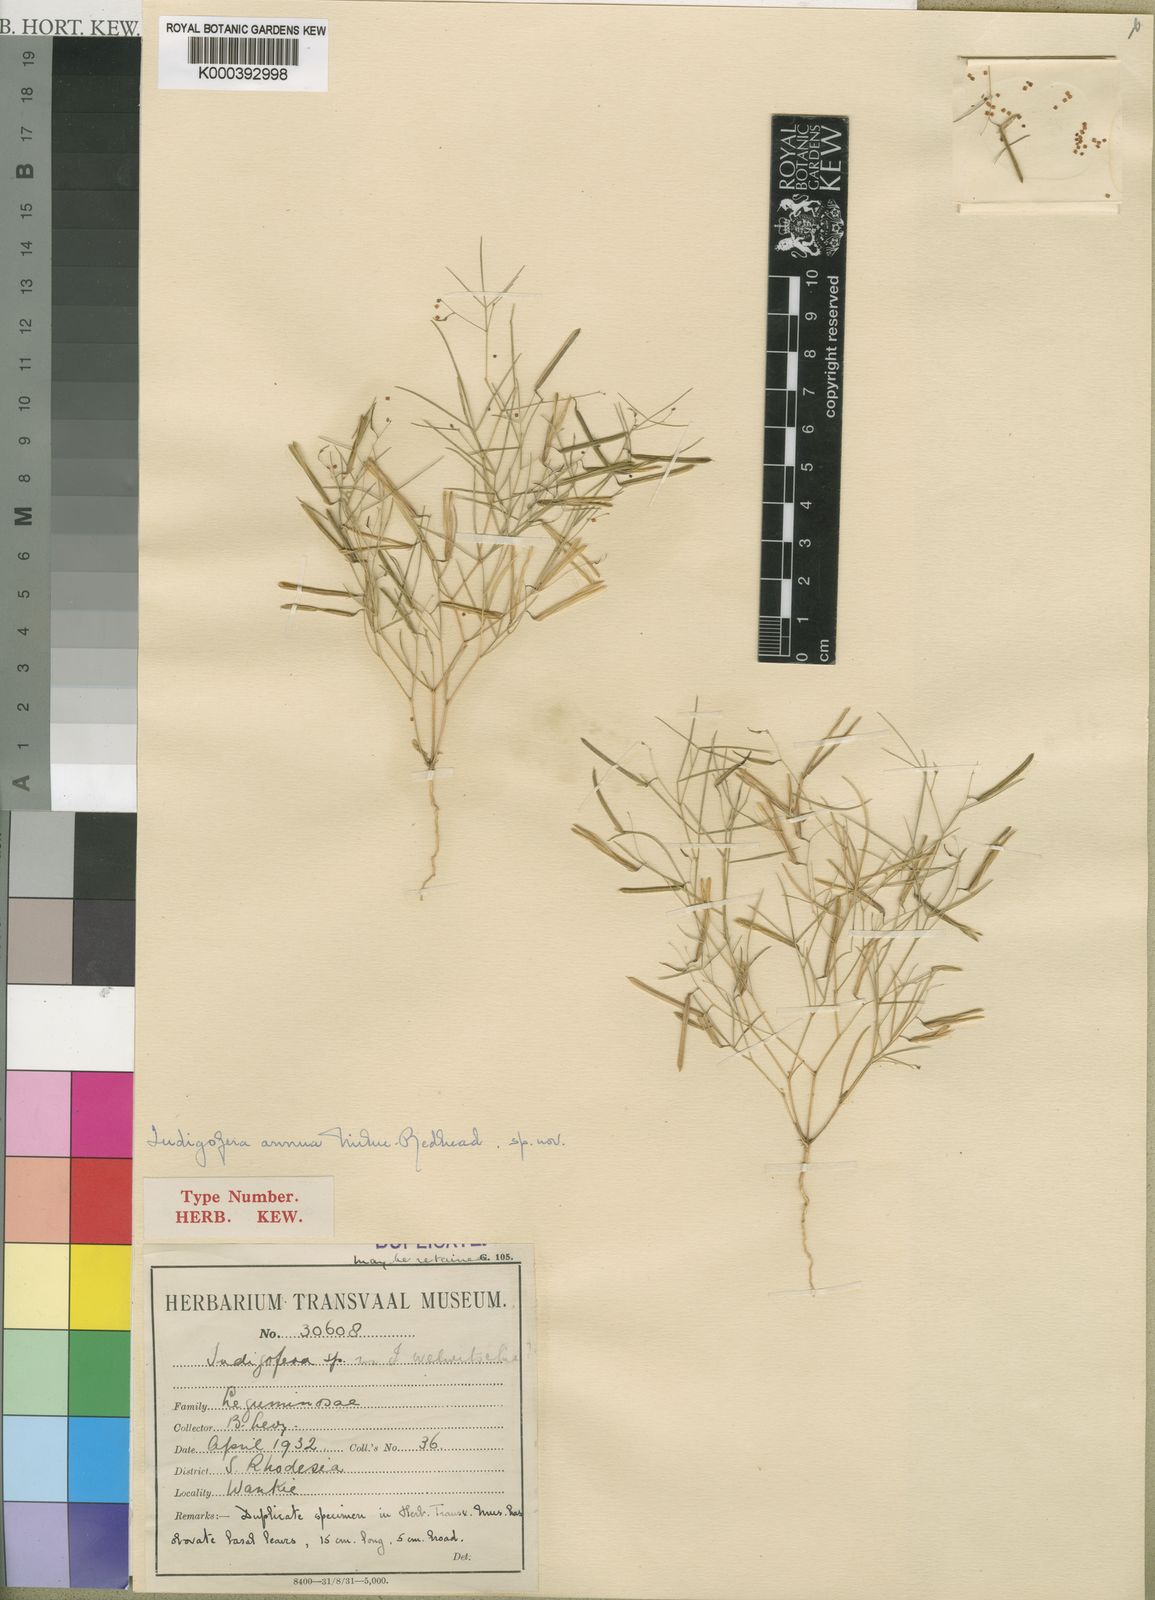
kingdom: Plantae
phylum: Tracheophyta
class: Magnoliopsida
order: Fabales
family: Fabaceae
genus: Microcharis
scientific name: Microcharis annua
